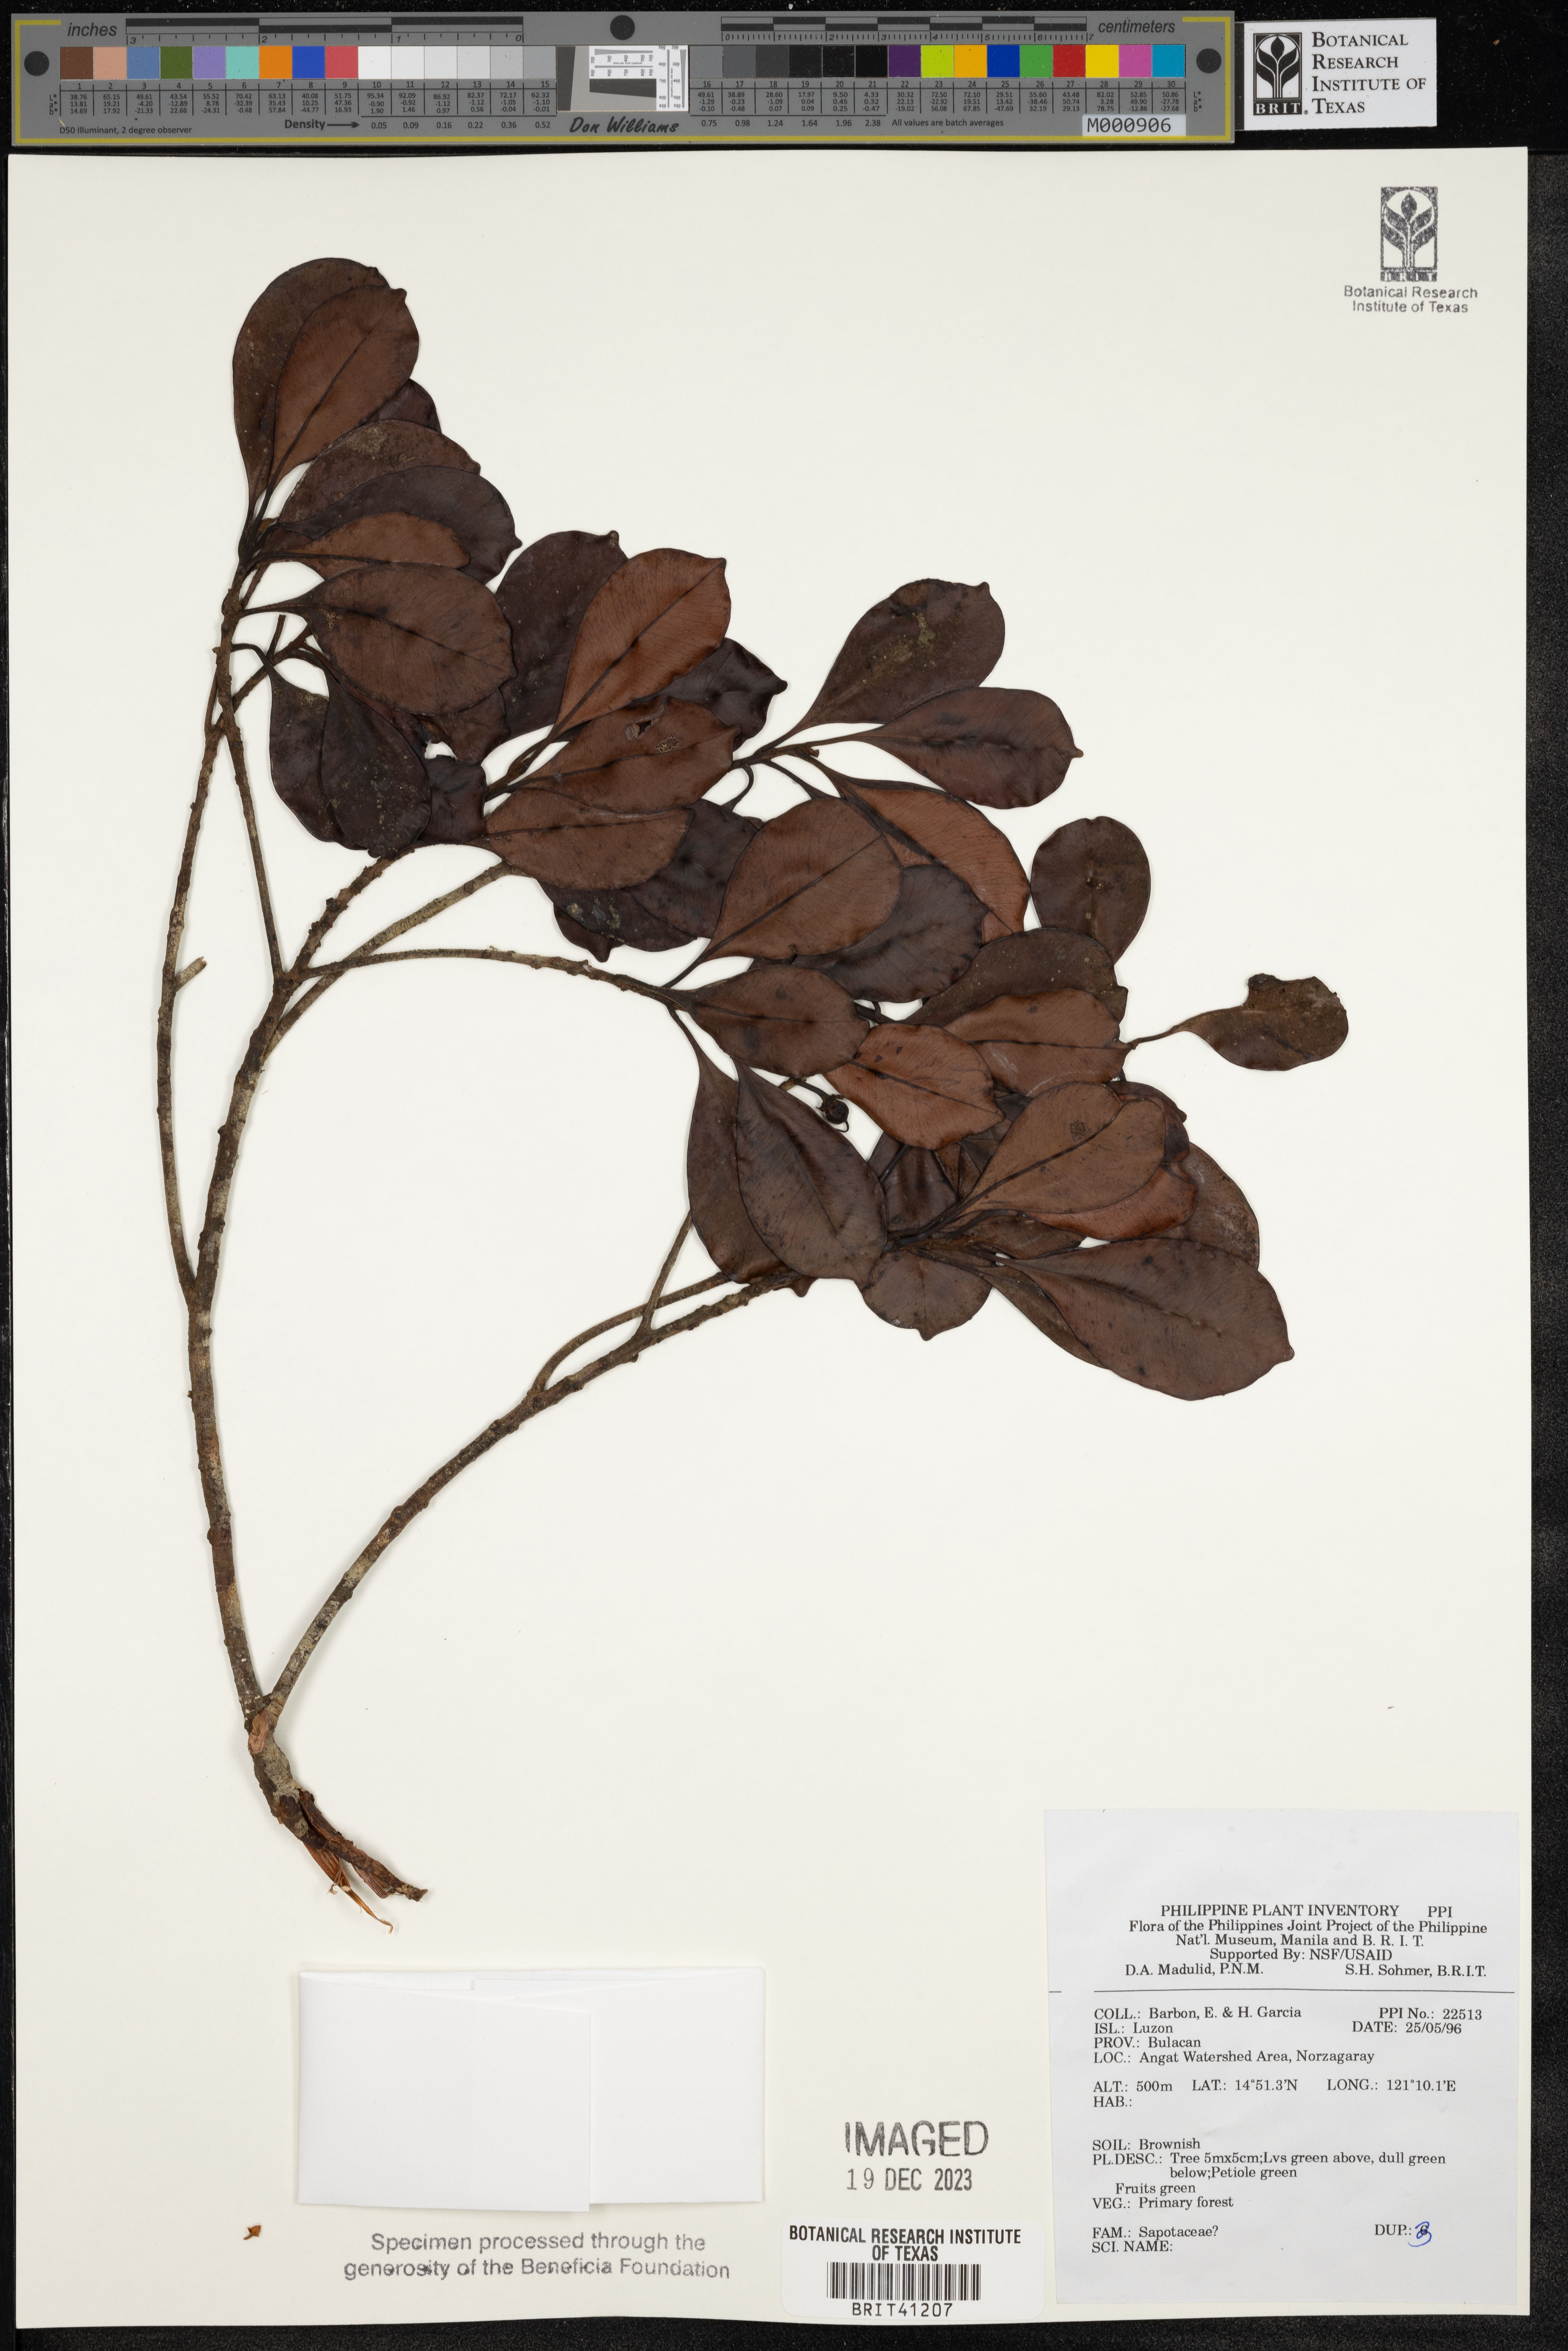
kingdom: Plantae
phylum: Tracheophyta
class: Magnoliopsida
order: Ericales
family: Sapotaceae
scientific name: Sapotaceae
